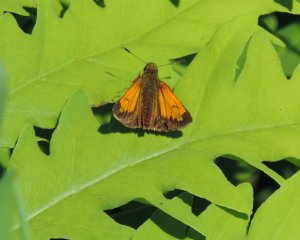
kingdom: Animalia
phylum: Arthropoda
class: Insecta
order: Lepidoptera
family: Hesperiidae
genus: Lon
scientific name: Lon hobomok
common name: Hobomok Skipper
